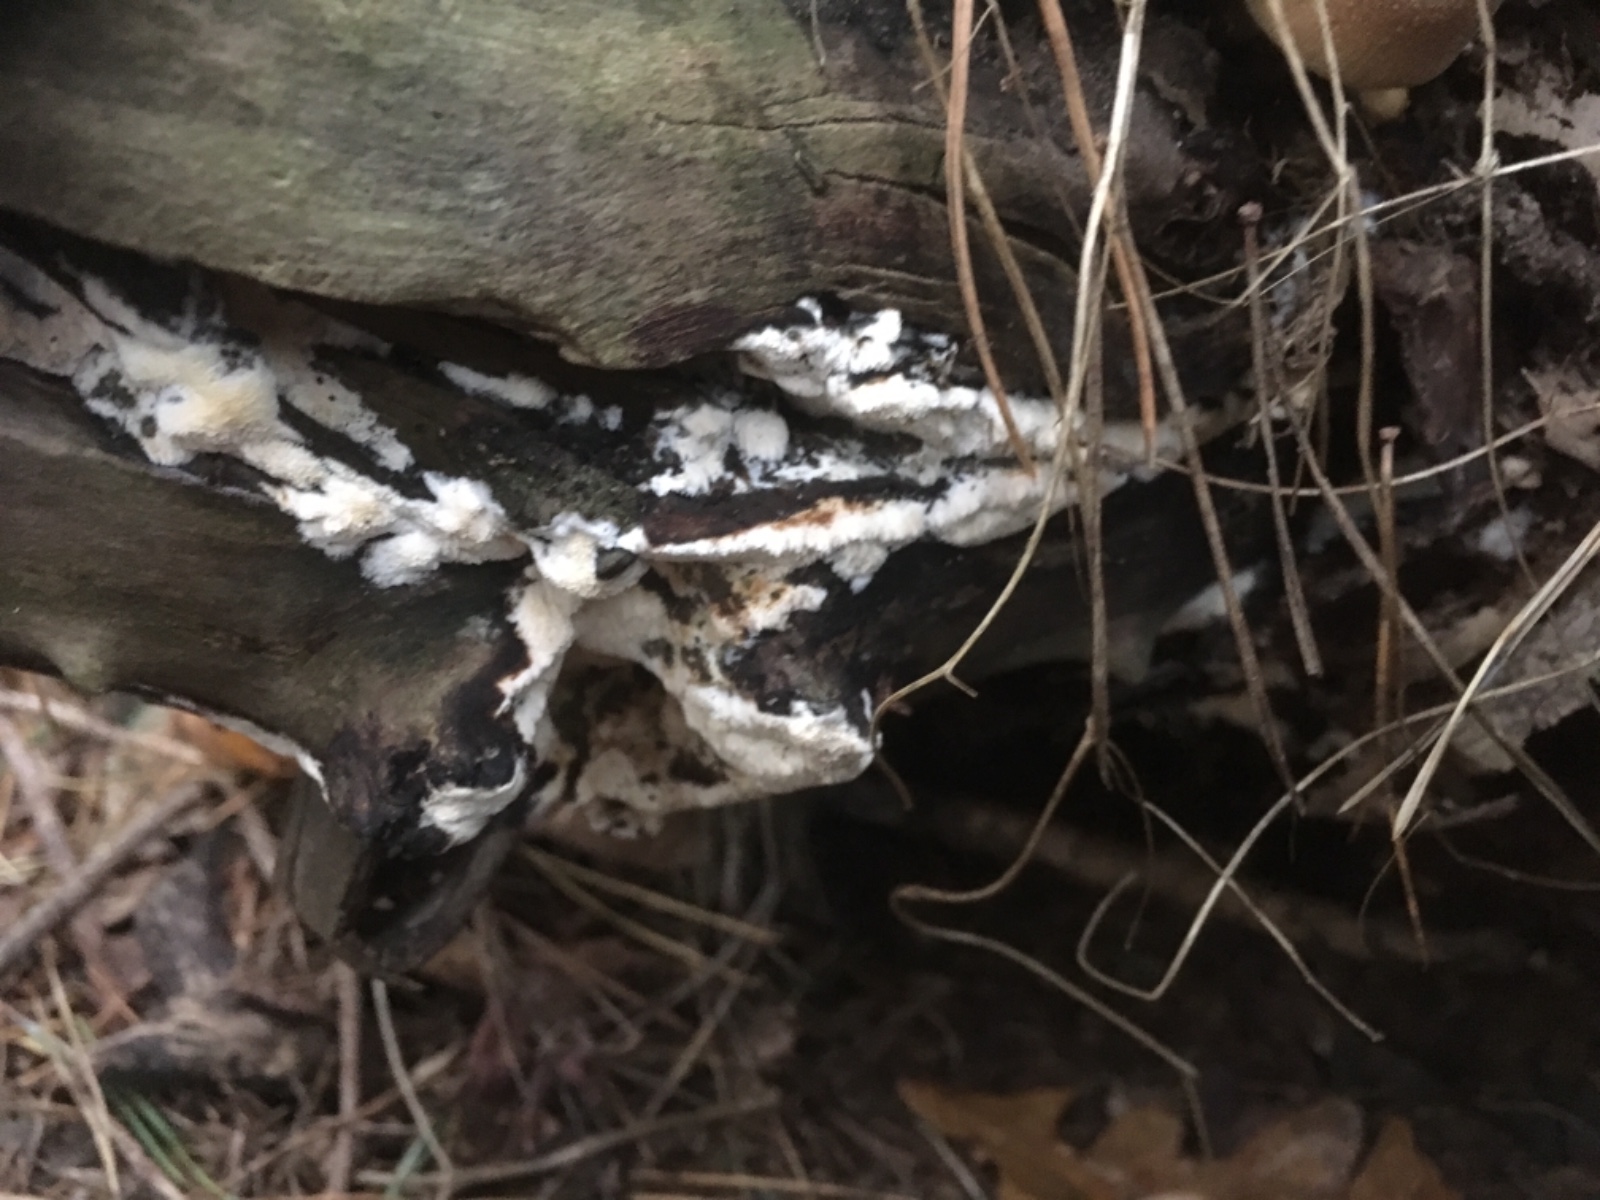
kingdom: Fungi
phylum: Basidiomycota
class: Agaricomycetes
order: Polyporales
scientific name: Polyporales
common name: poresvampordenen
